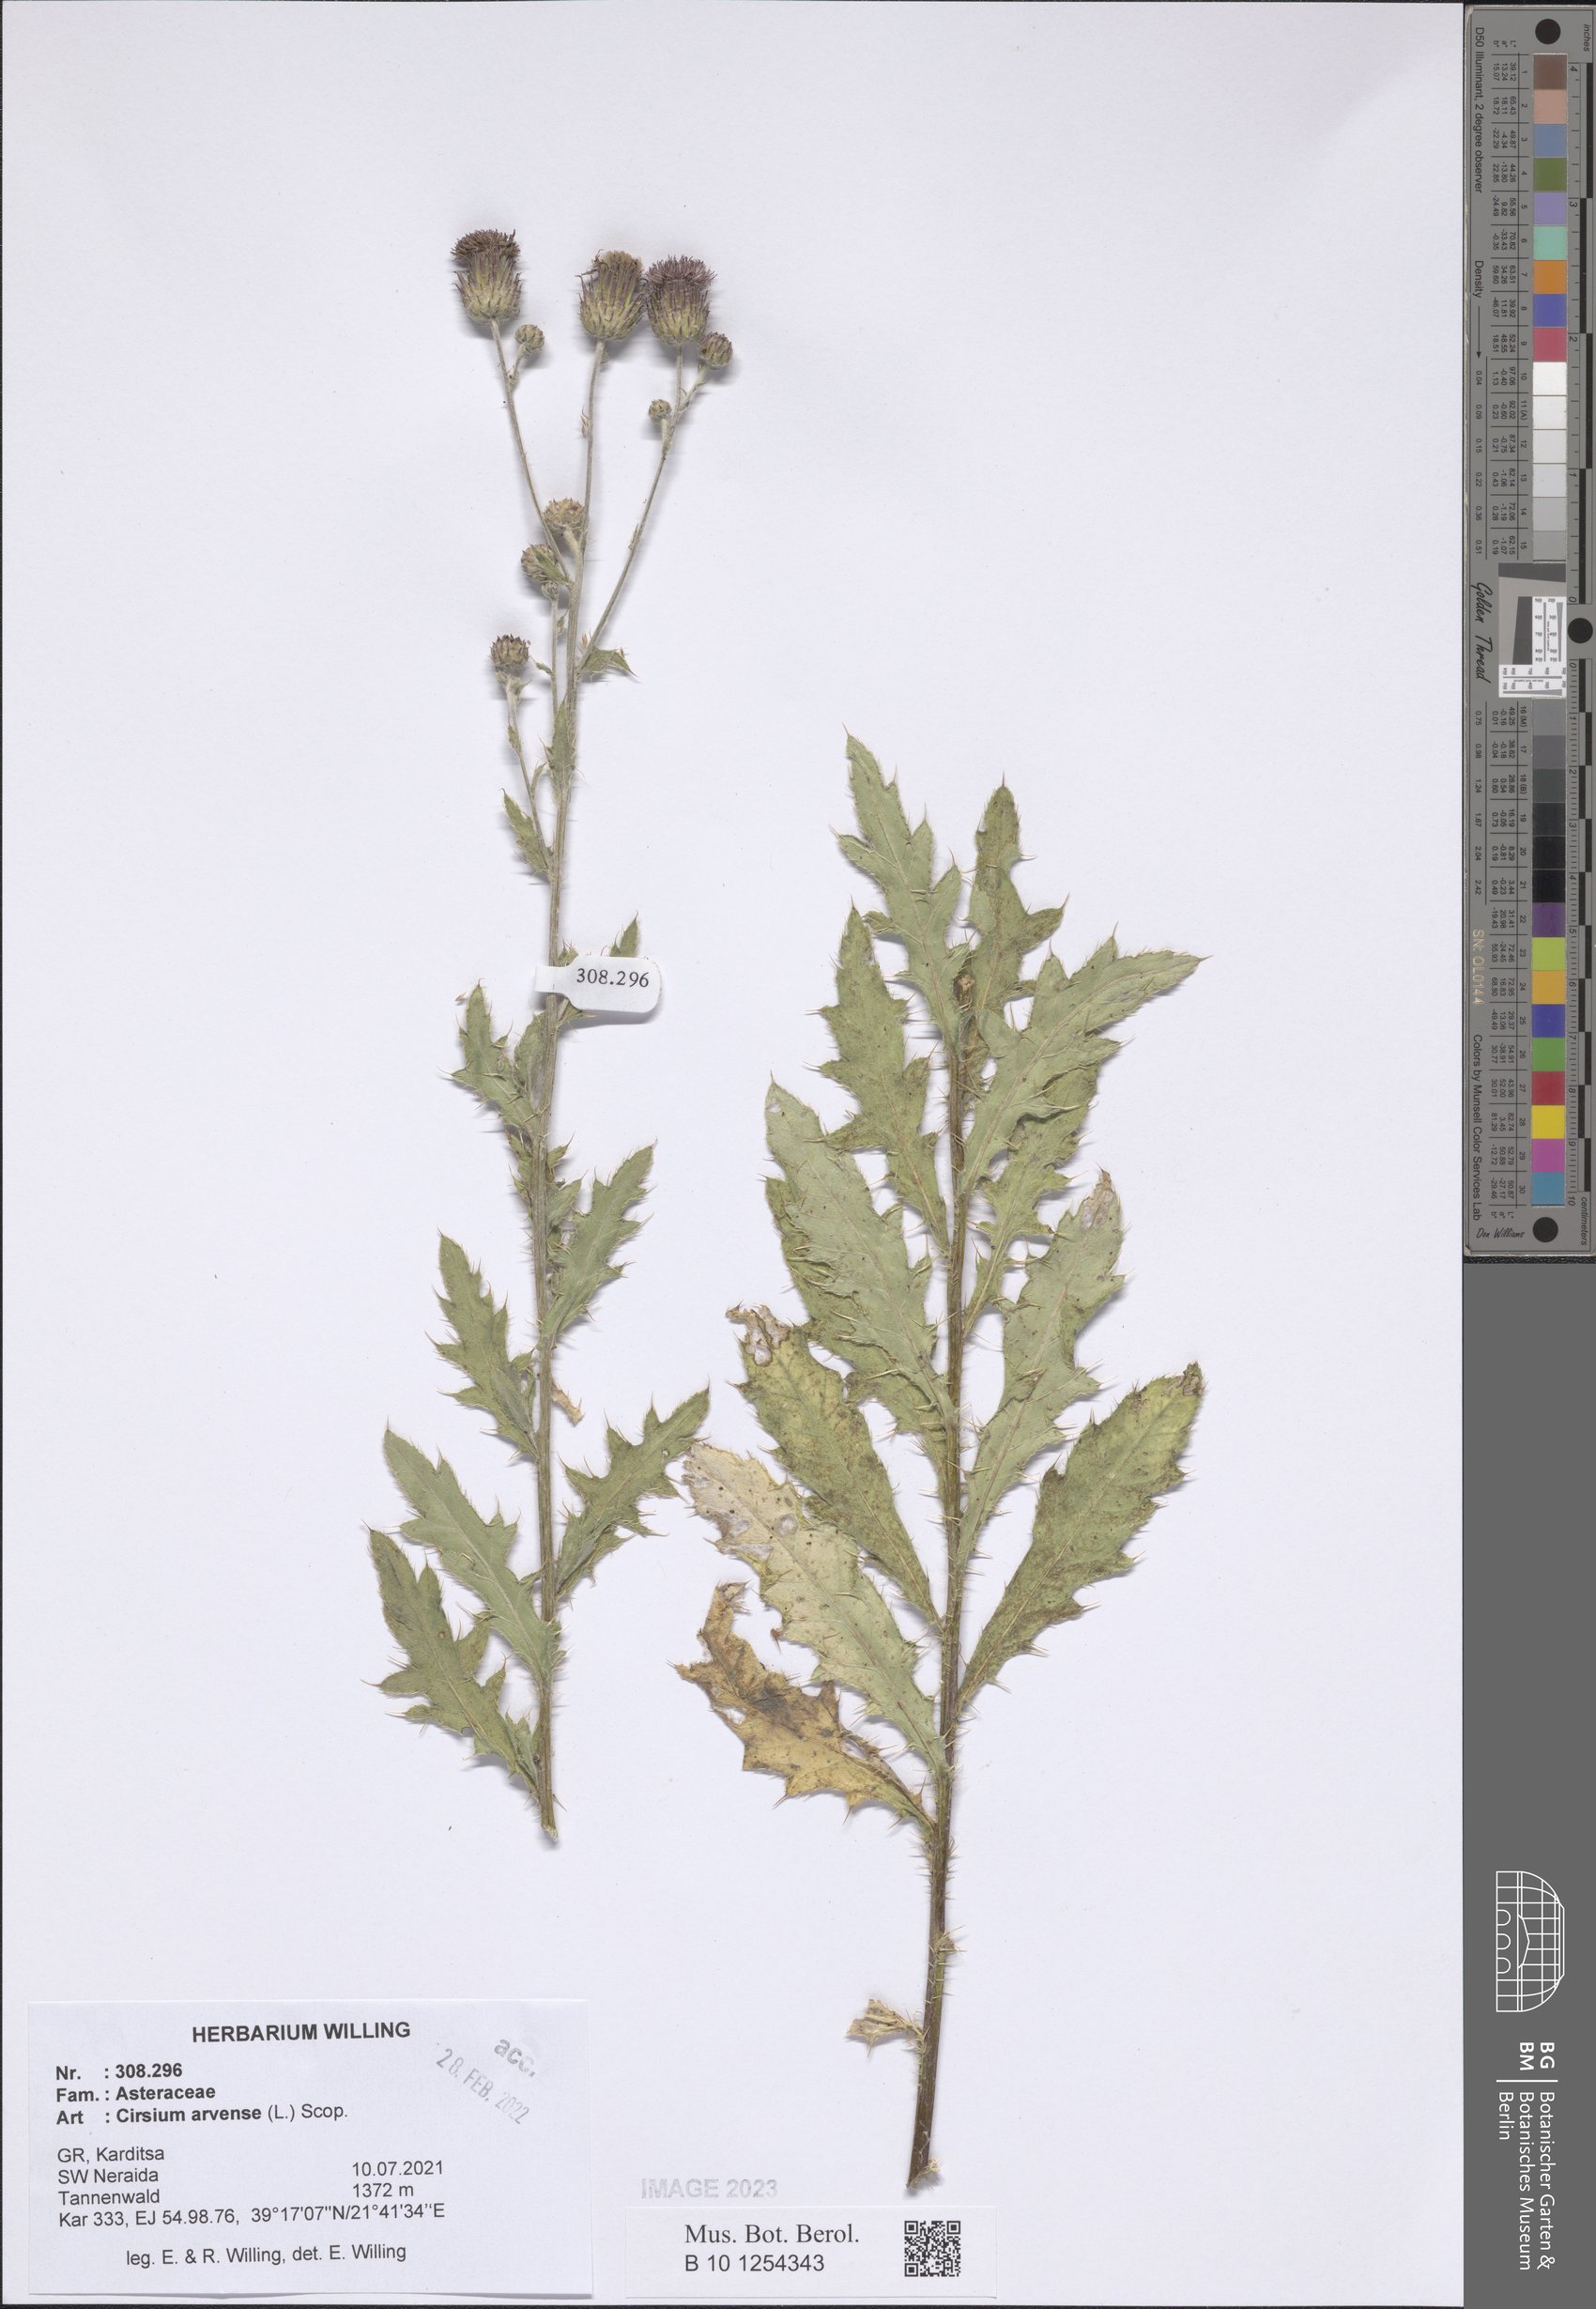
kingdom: Plantae
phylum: Tracheophyta
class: Magnoliopsida
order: Asterales
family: Asteraceae
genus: Cirsium
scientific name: Cirsium arvense
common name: Creeping thistle
